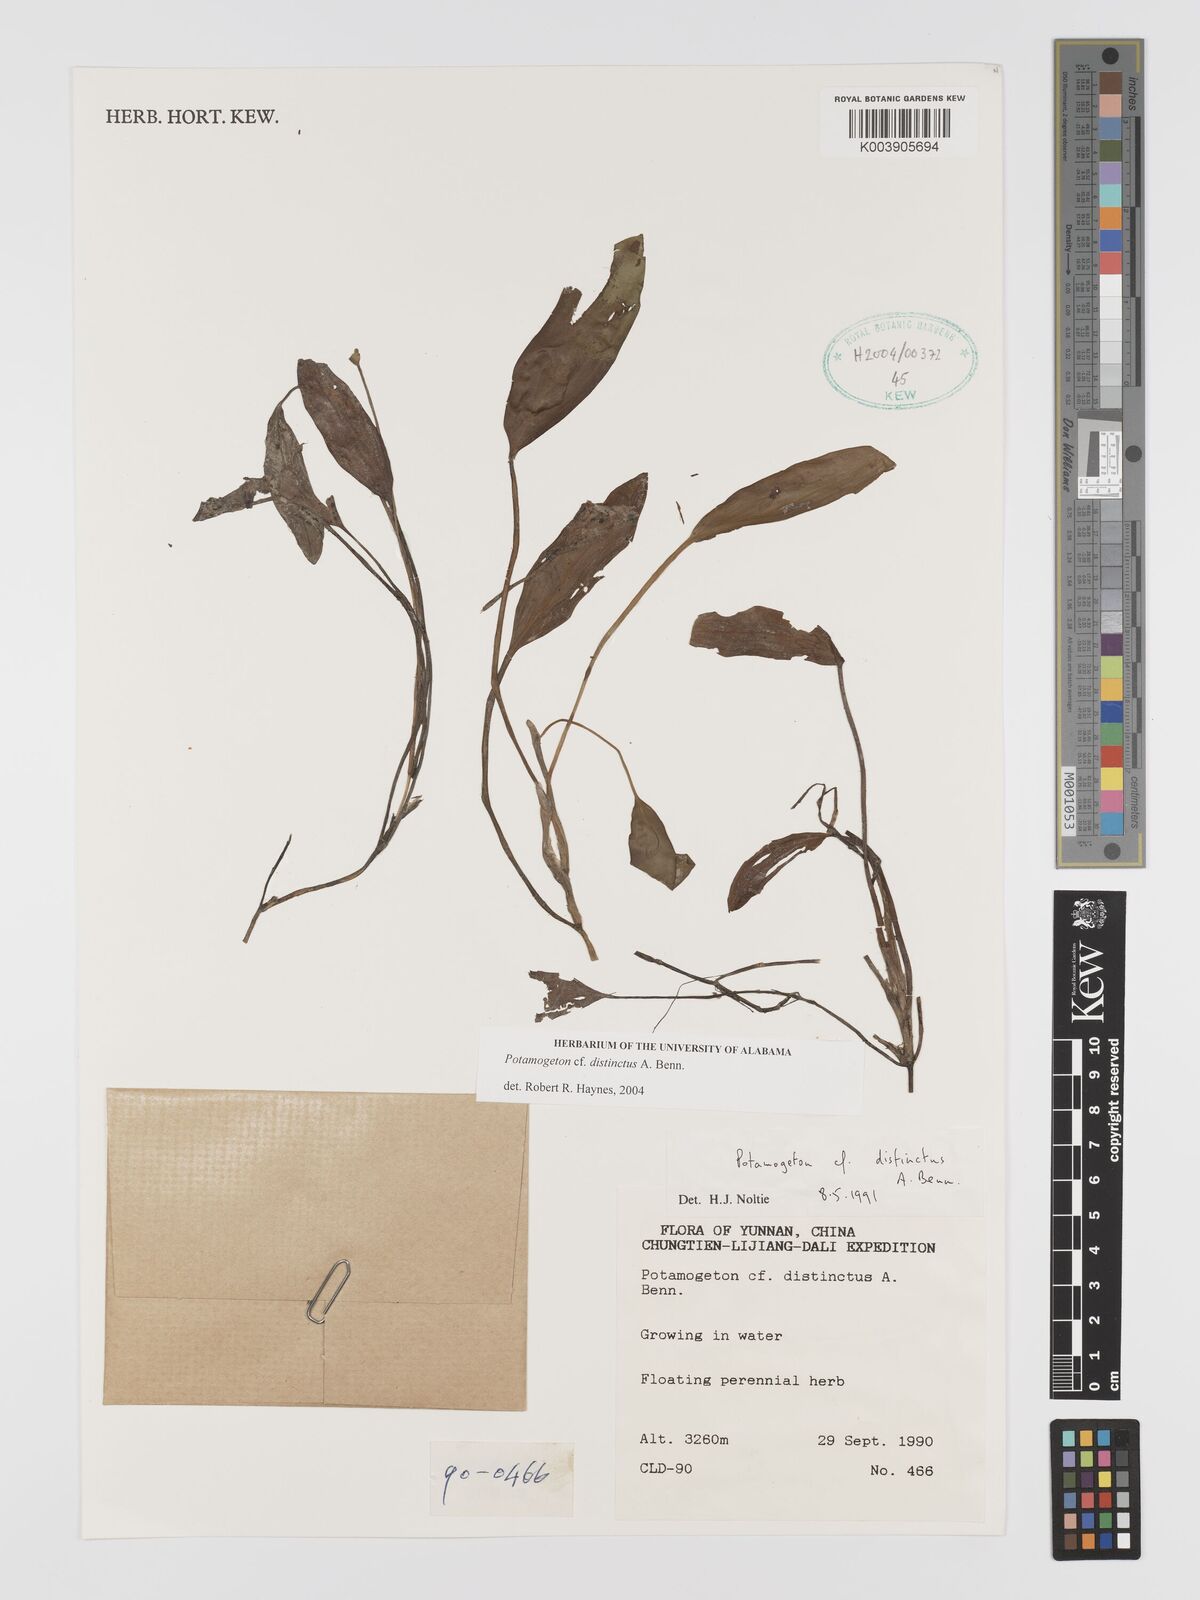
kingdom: Plantae
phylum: Tracheophyta
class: Liliopsida
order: Alismatales
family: Potamogetonaceae
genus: Potamogeton
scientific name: Potamogeton distinctus
